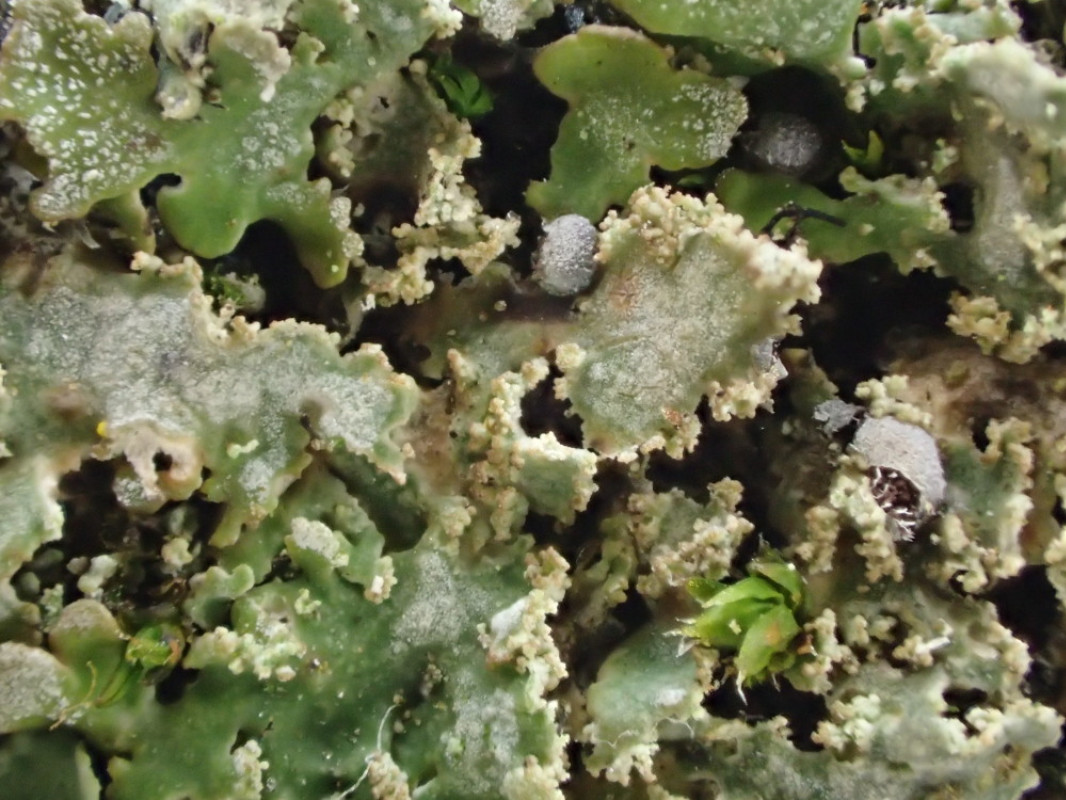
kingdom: Fungi
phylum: Ascomycota
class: Lecanoromycetes
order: Caliciales
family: Physciaceae
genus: Physconia
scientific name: Physconia
